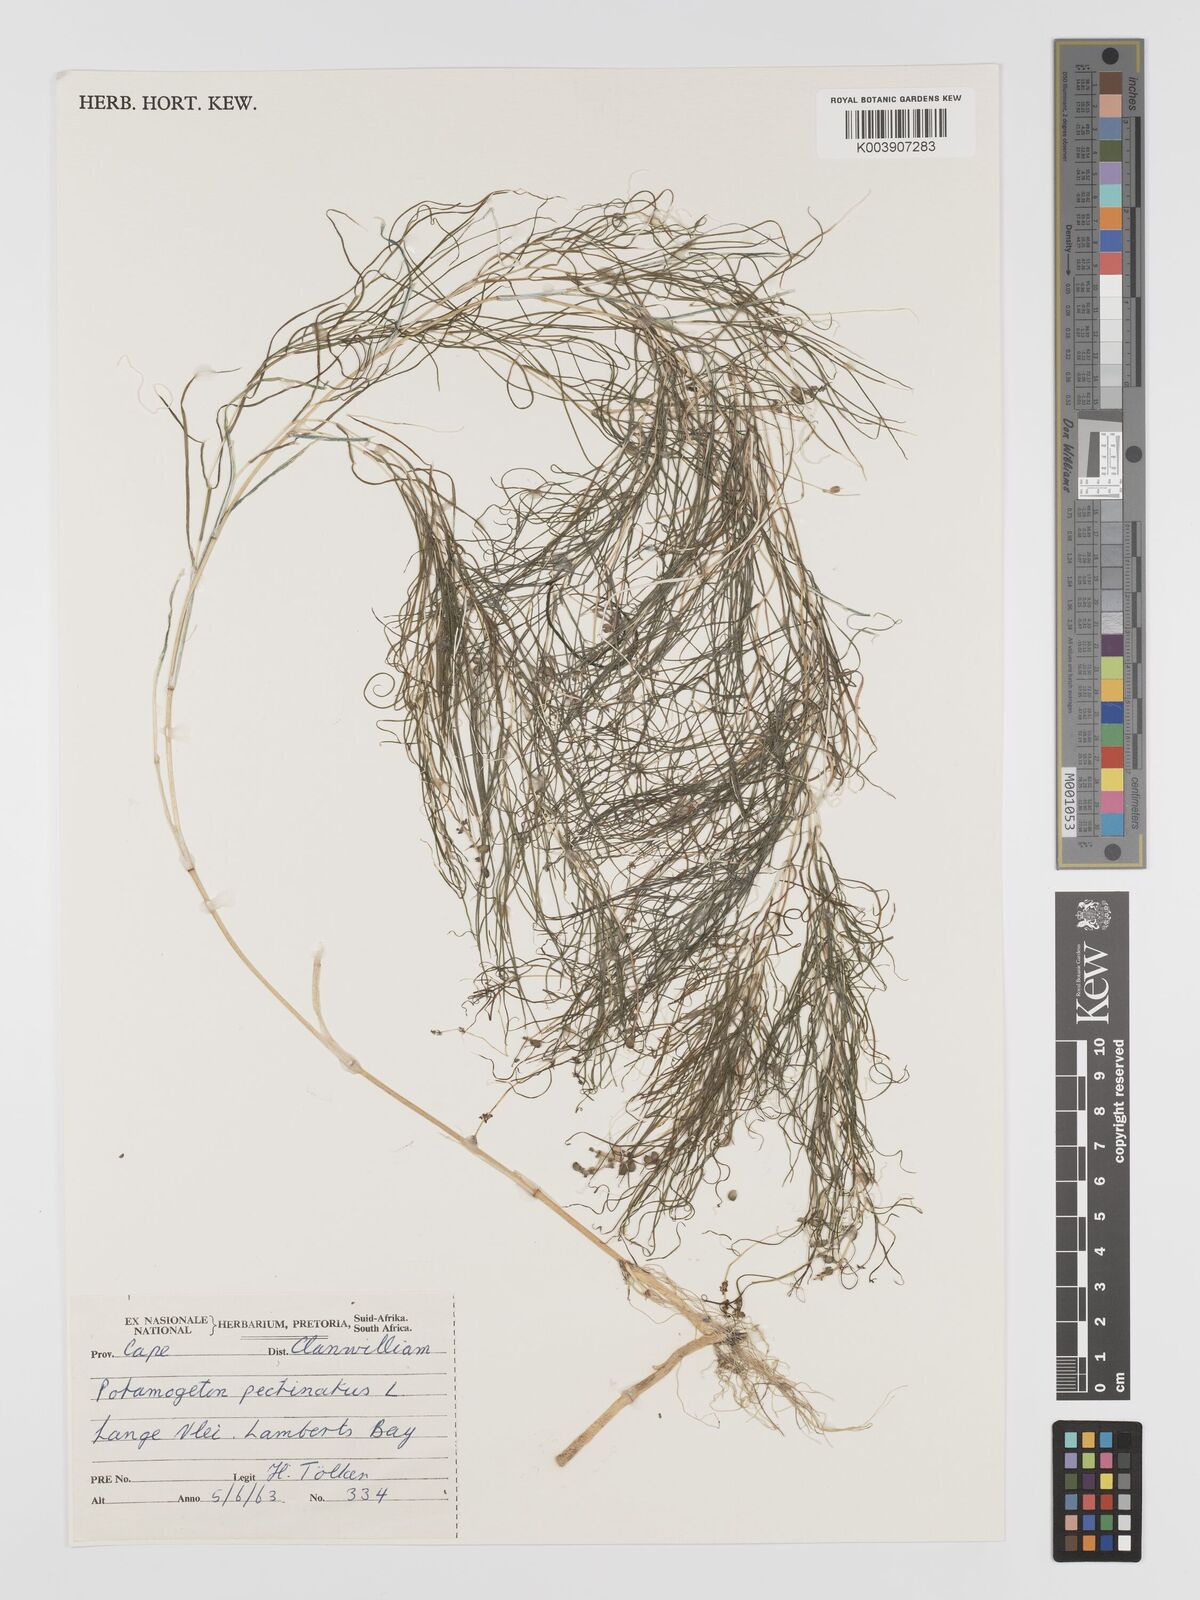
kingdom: Plantae
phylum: Tracheophyta
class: Liliopsida
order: Alismatales
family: Potamogetonaceae
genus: Stuckenia
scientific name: Stuckenia pectinata
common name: Sago pondweed
